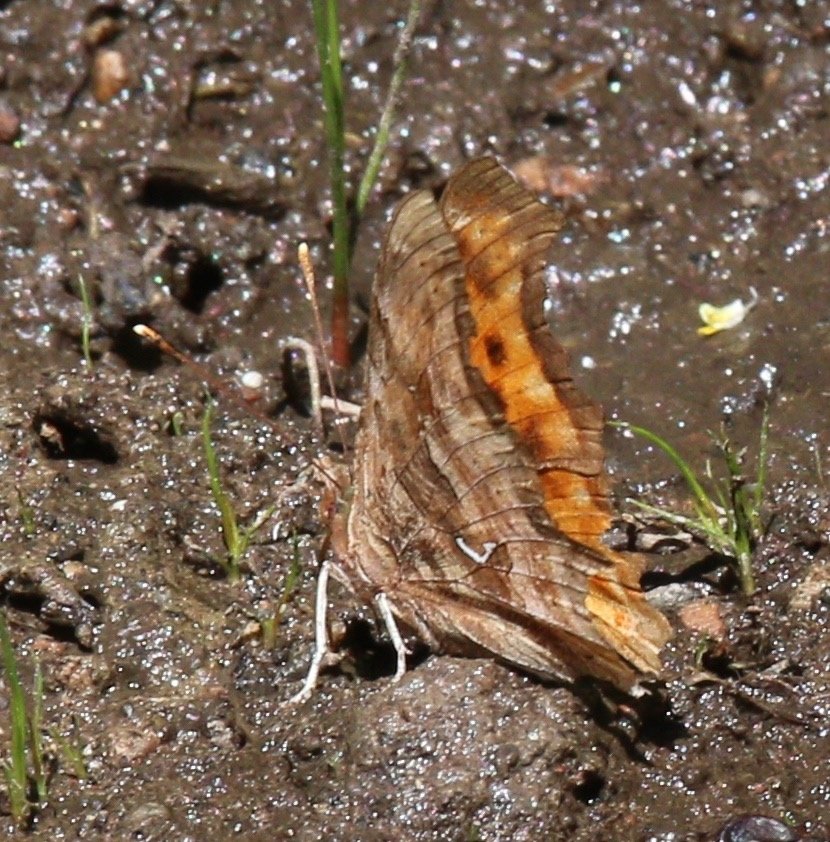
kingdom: Animalia
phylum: Arthropoda
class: Insecta
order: Lepidoptera
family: Nymphalidae
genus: Polygonia
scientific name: Polygonia satyrus
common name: Satyr Comma
